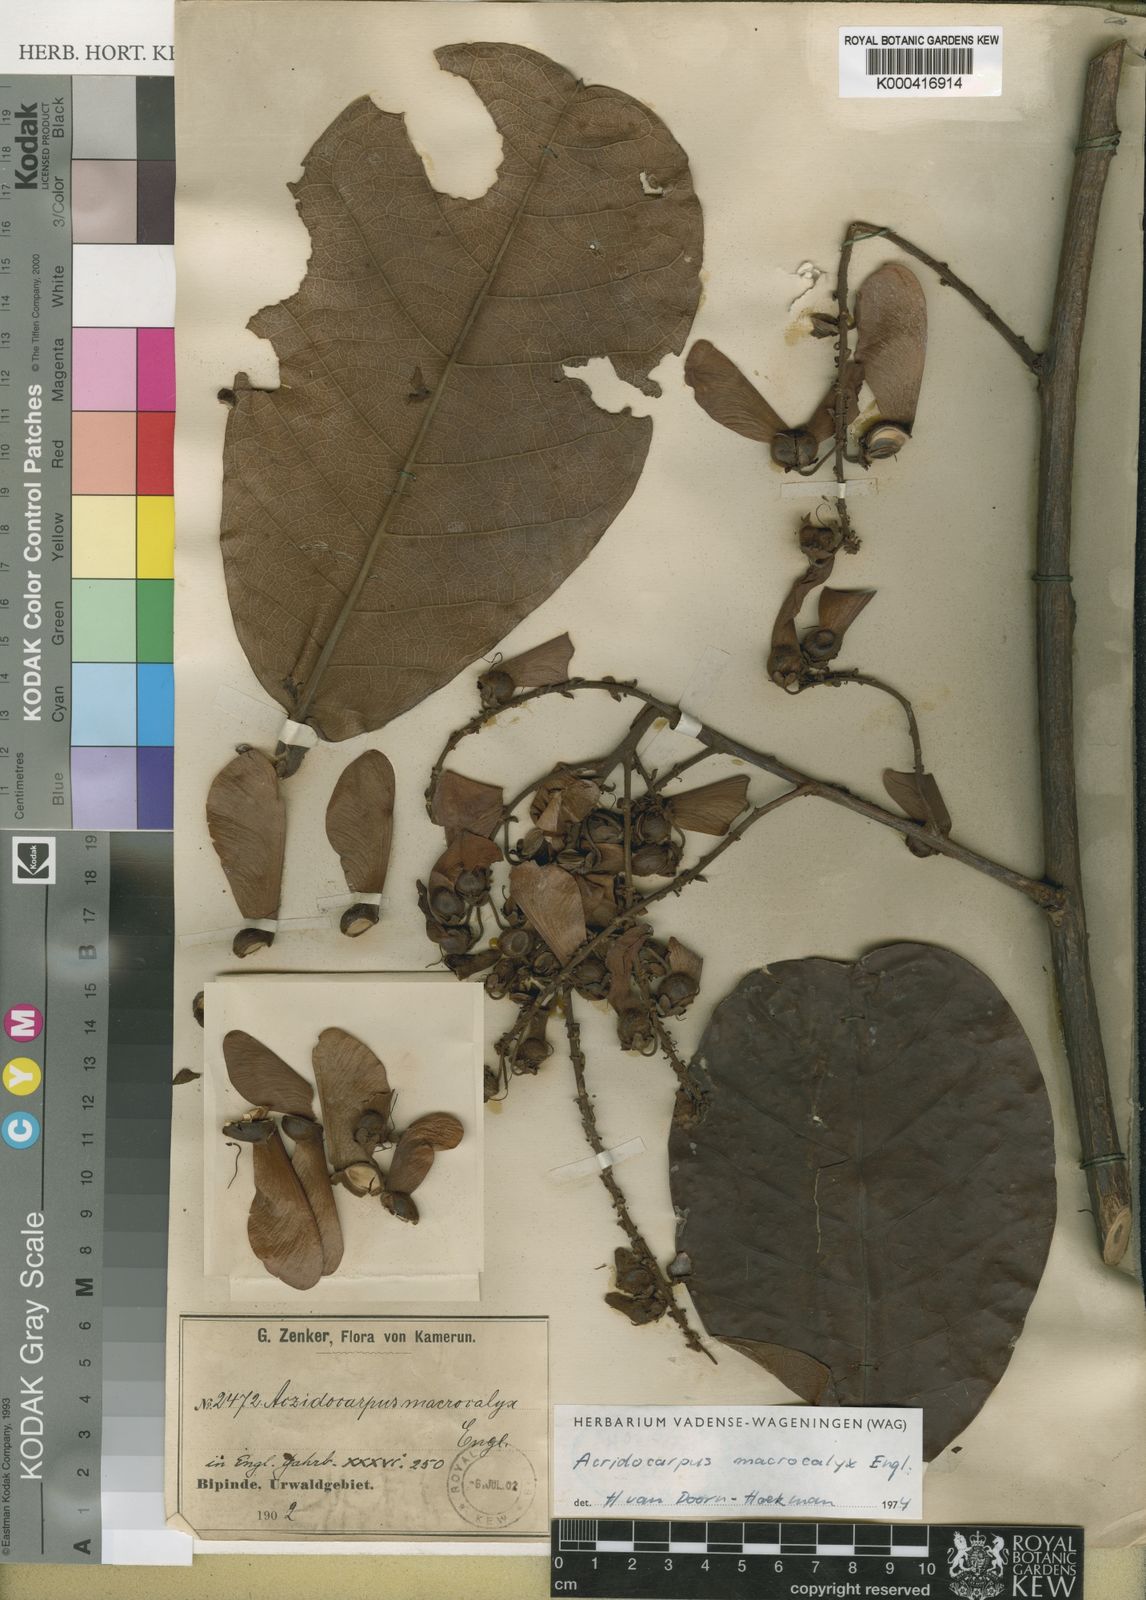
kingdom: Plantae
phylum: Tracheophyta
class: Magnoliopsida
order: Malpighiales
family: Malpighiaceae
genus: Acridocarpus
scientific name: Acridocarpus macrocalyx
